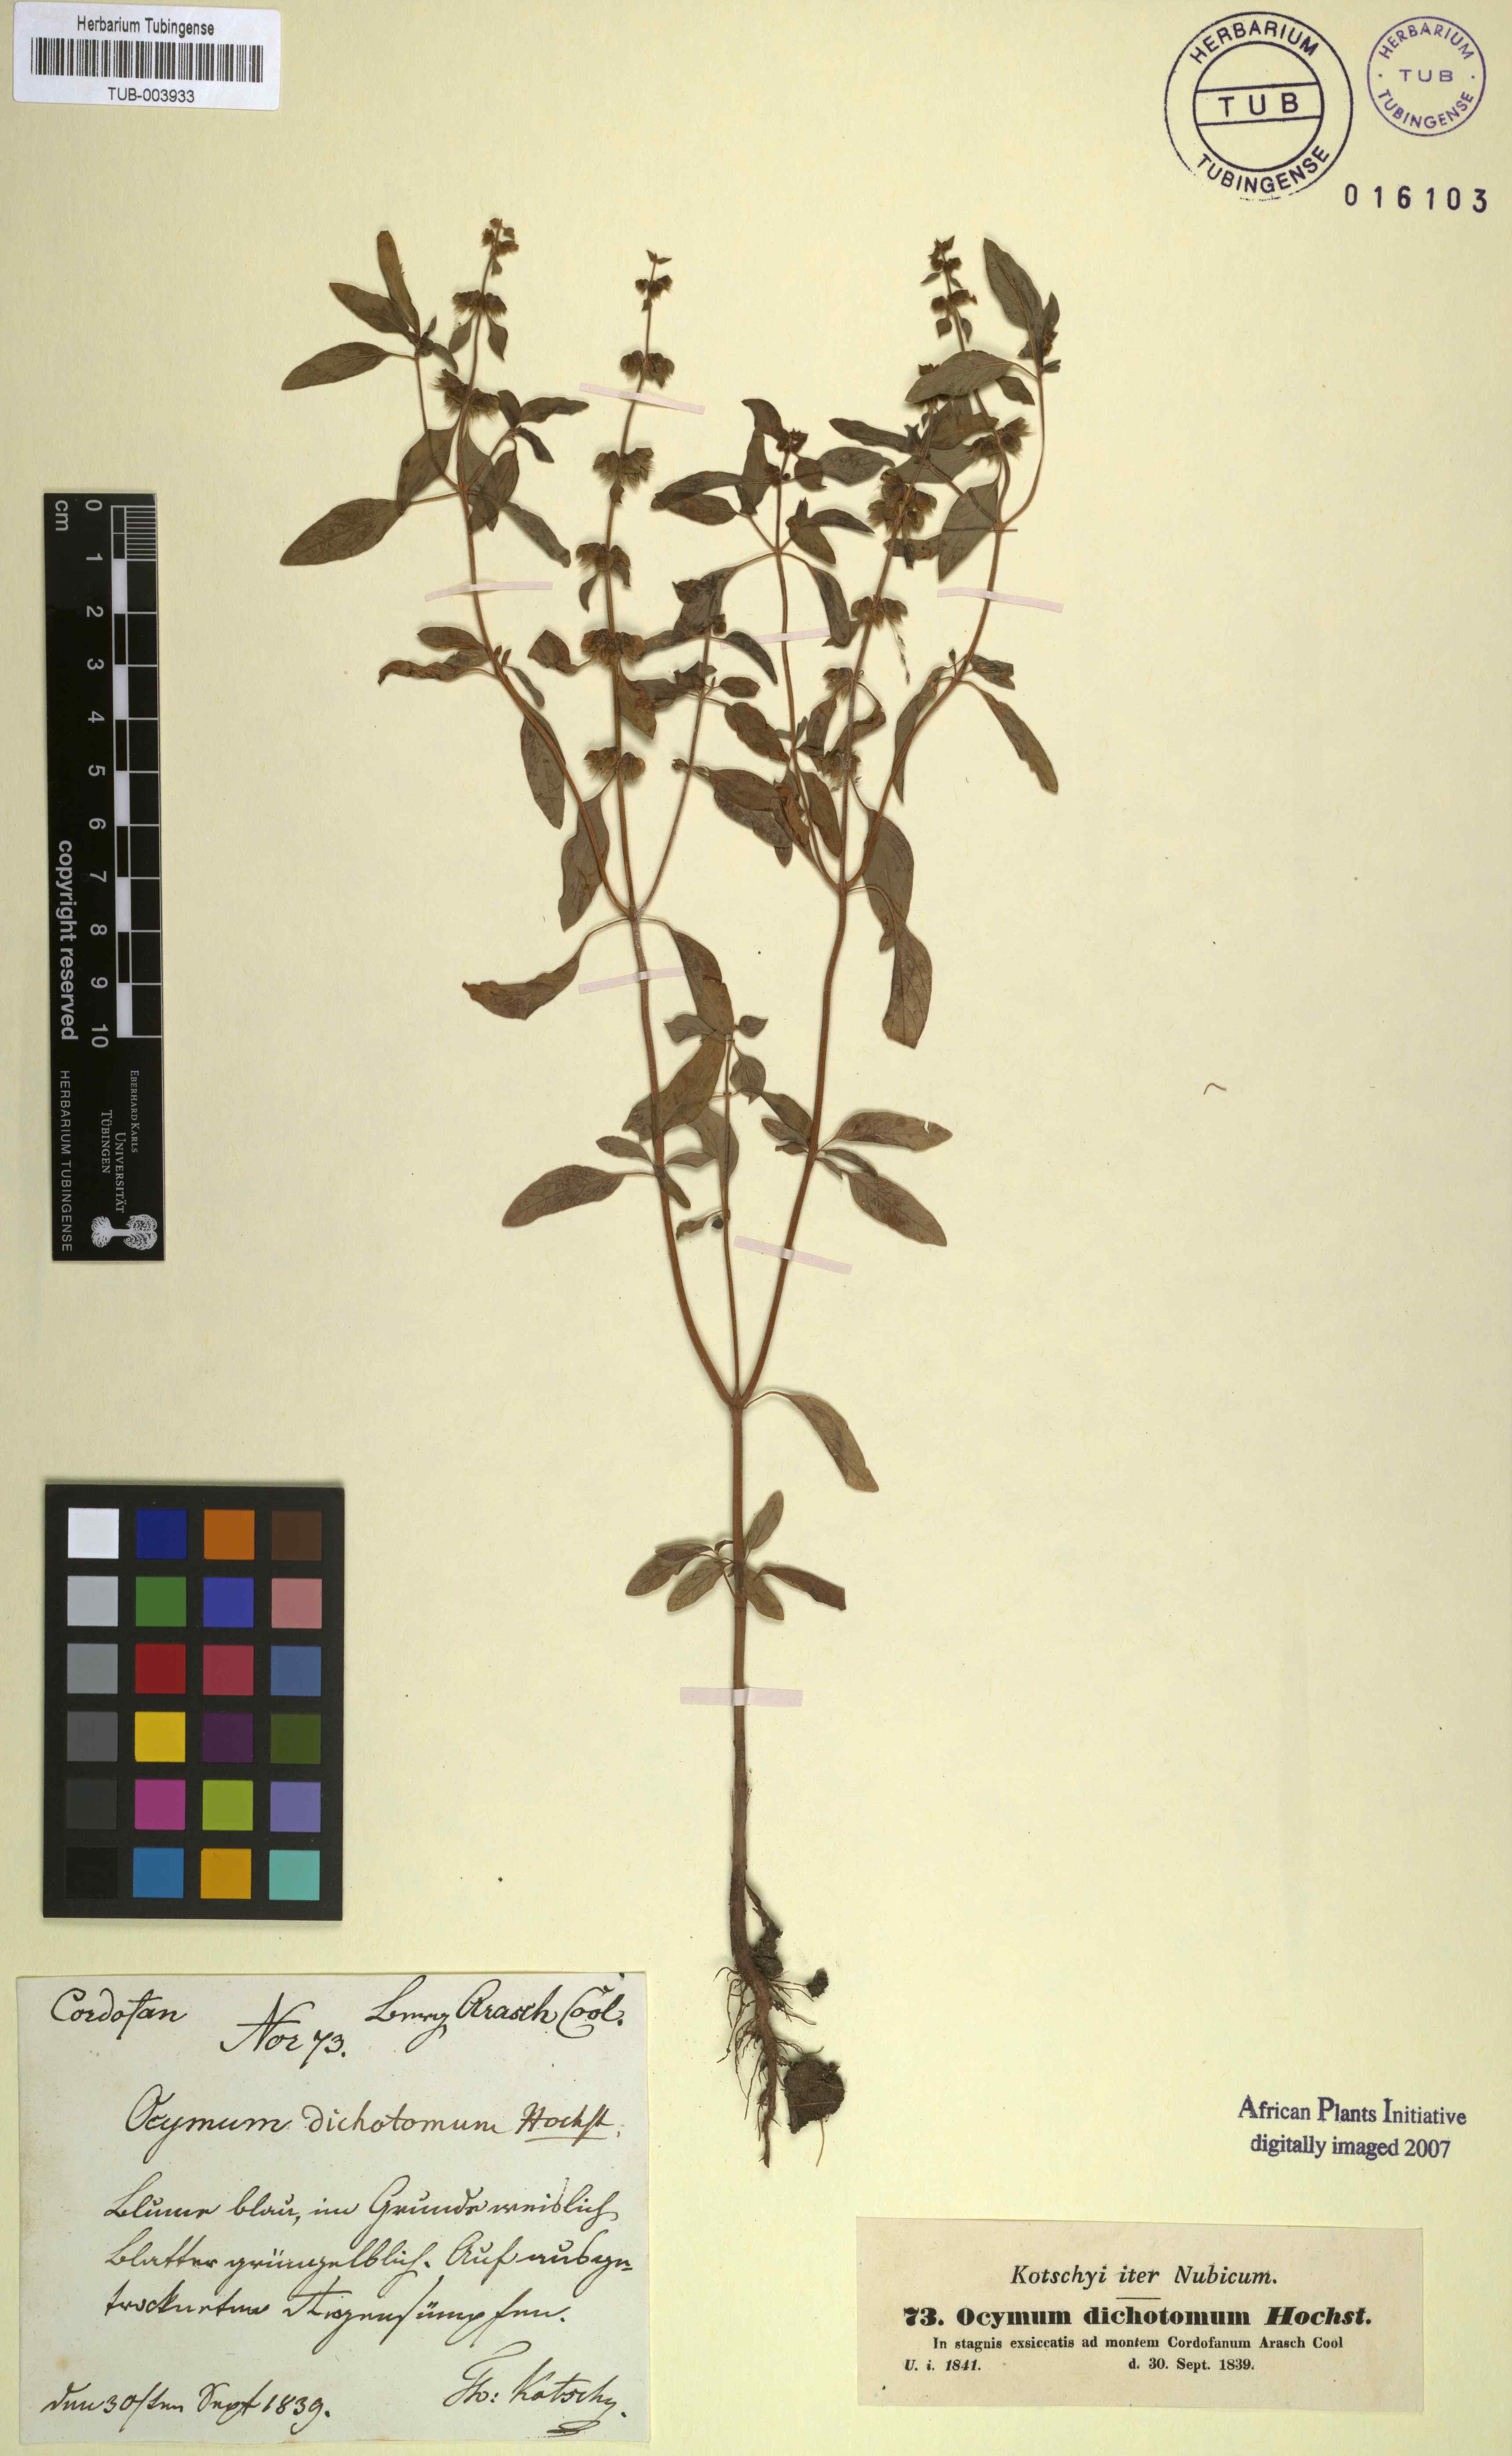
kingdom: Plantae
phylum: Tracheophyta
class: Magnoliopsida
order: Lamiales
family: Lamiaceae
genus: Ocimum
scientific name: Ocimum americanum
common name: American basil
